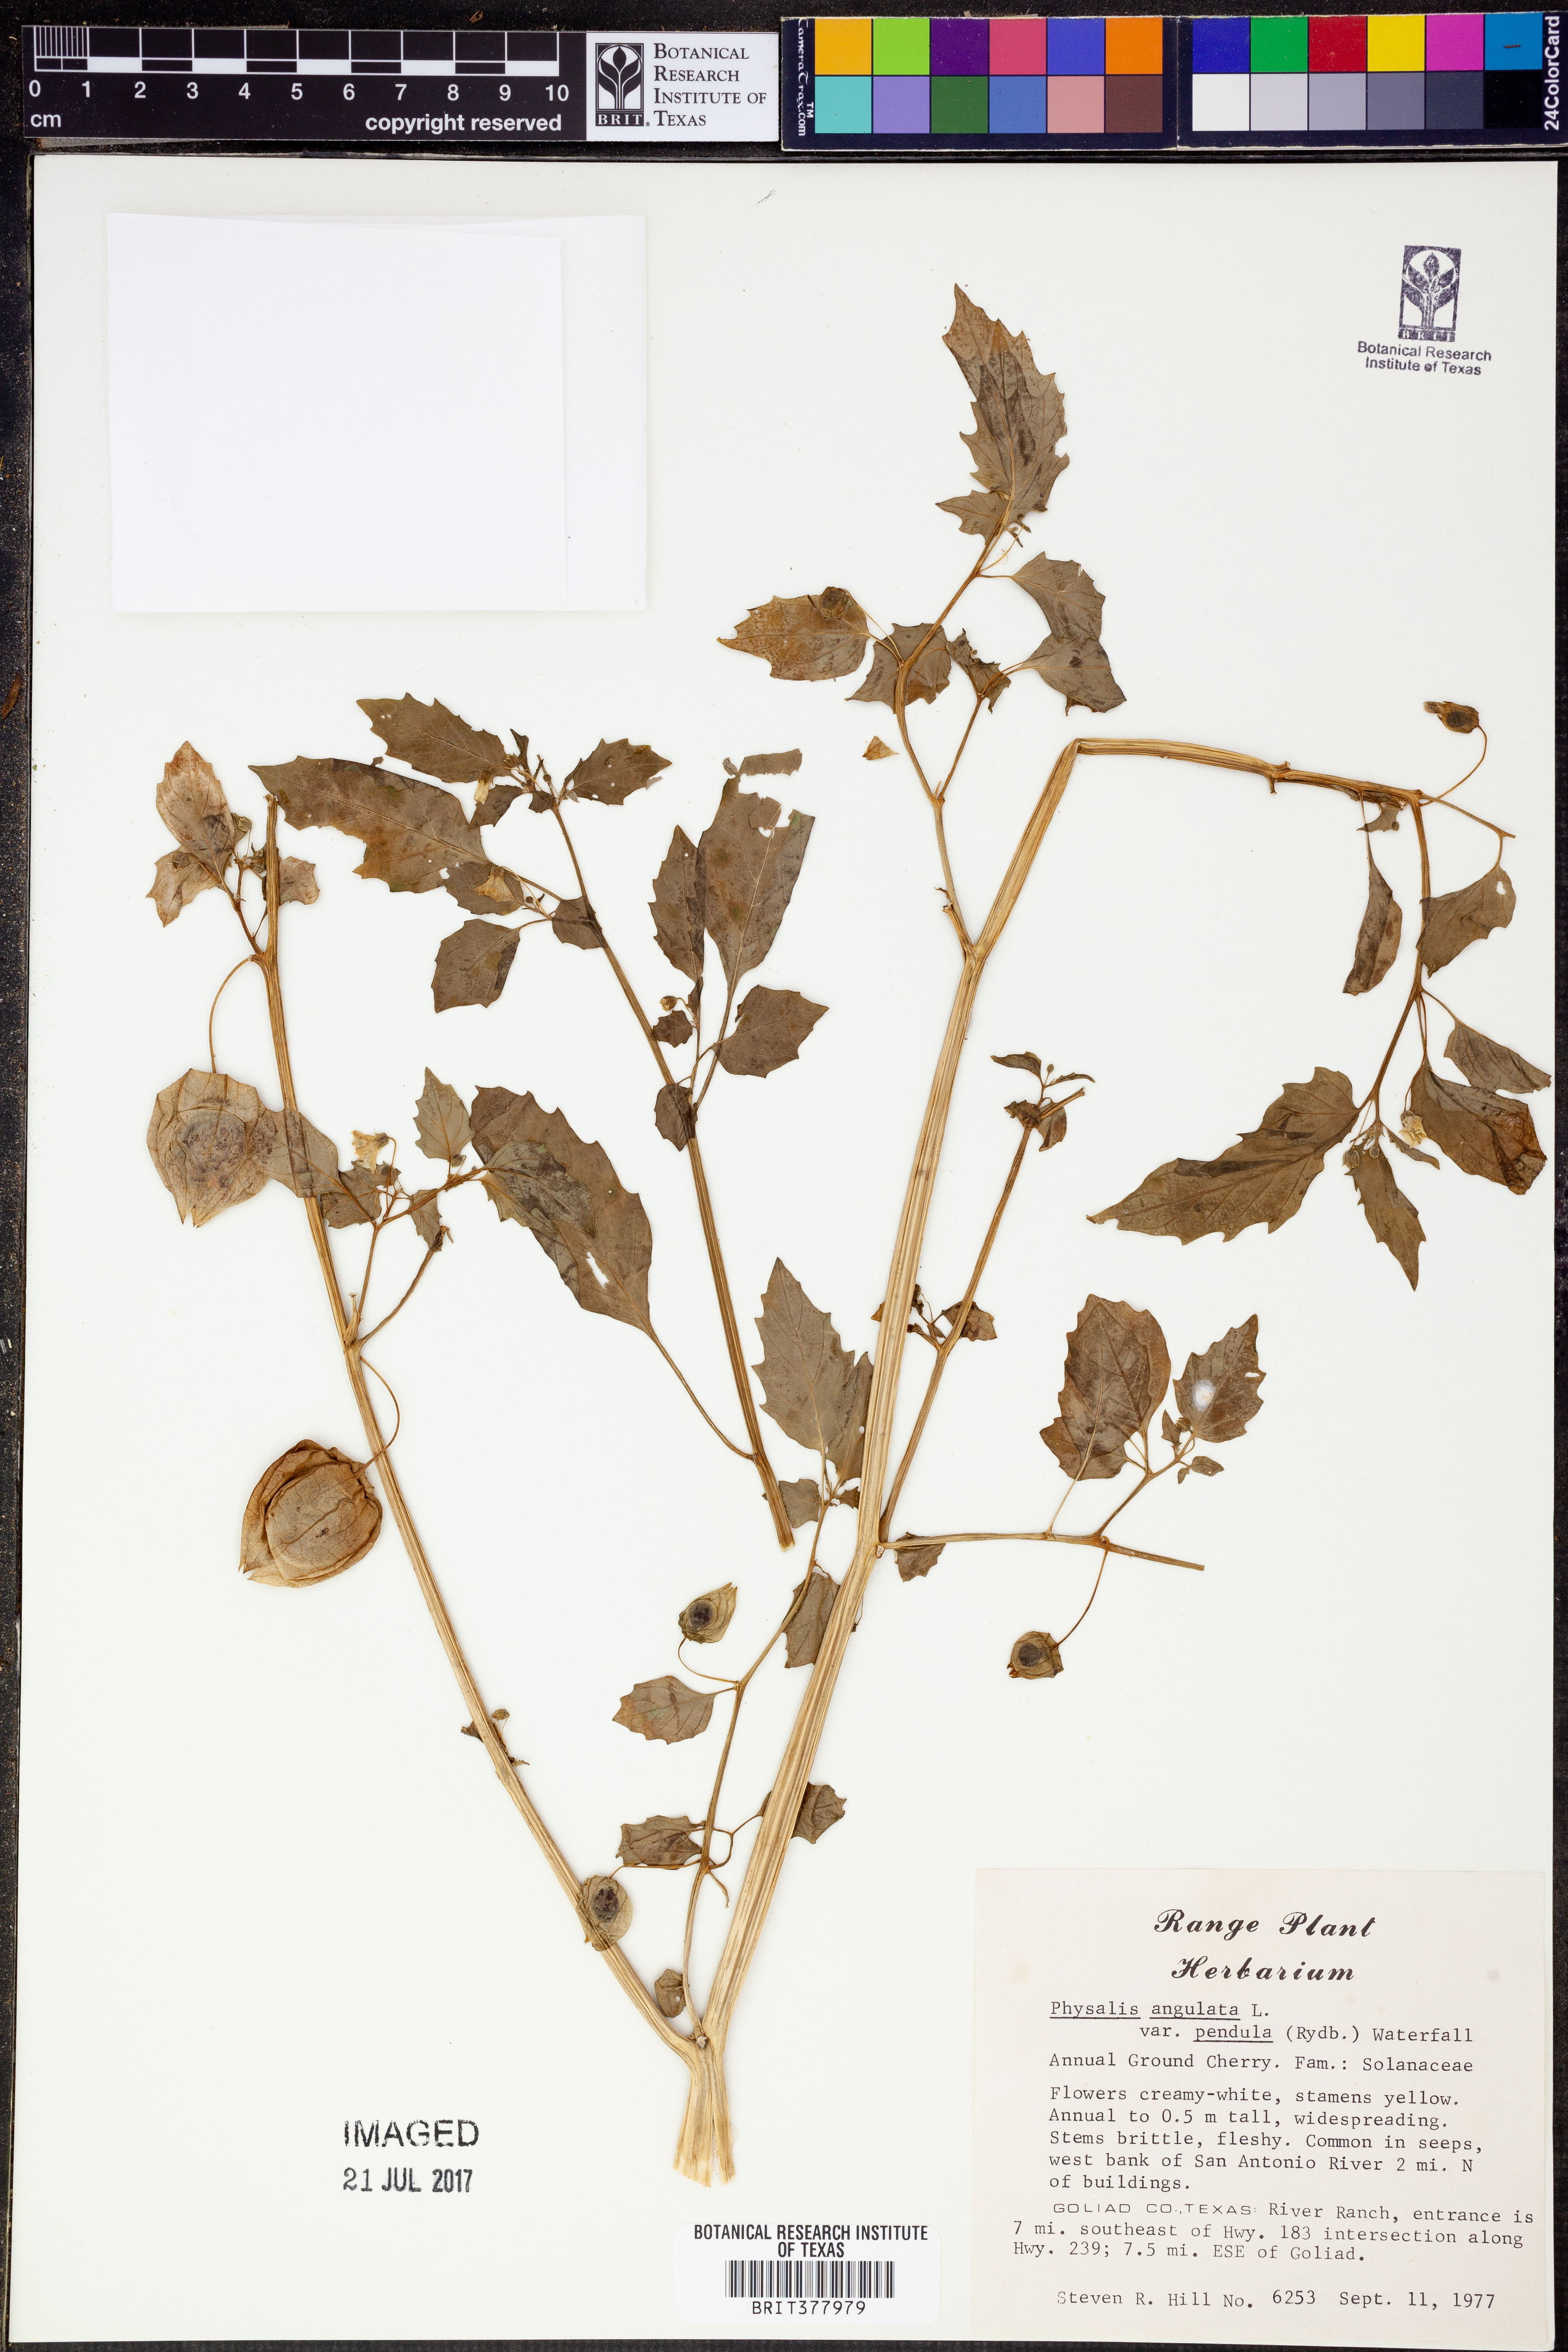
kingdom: Plantae
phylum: Tracheophyta
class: Magnoliopsida
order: Solanales
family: Solanaceae
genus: Physalis
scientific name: Physalis angulata
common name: Angular winter-cherry
